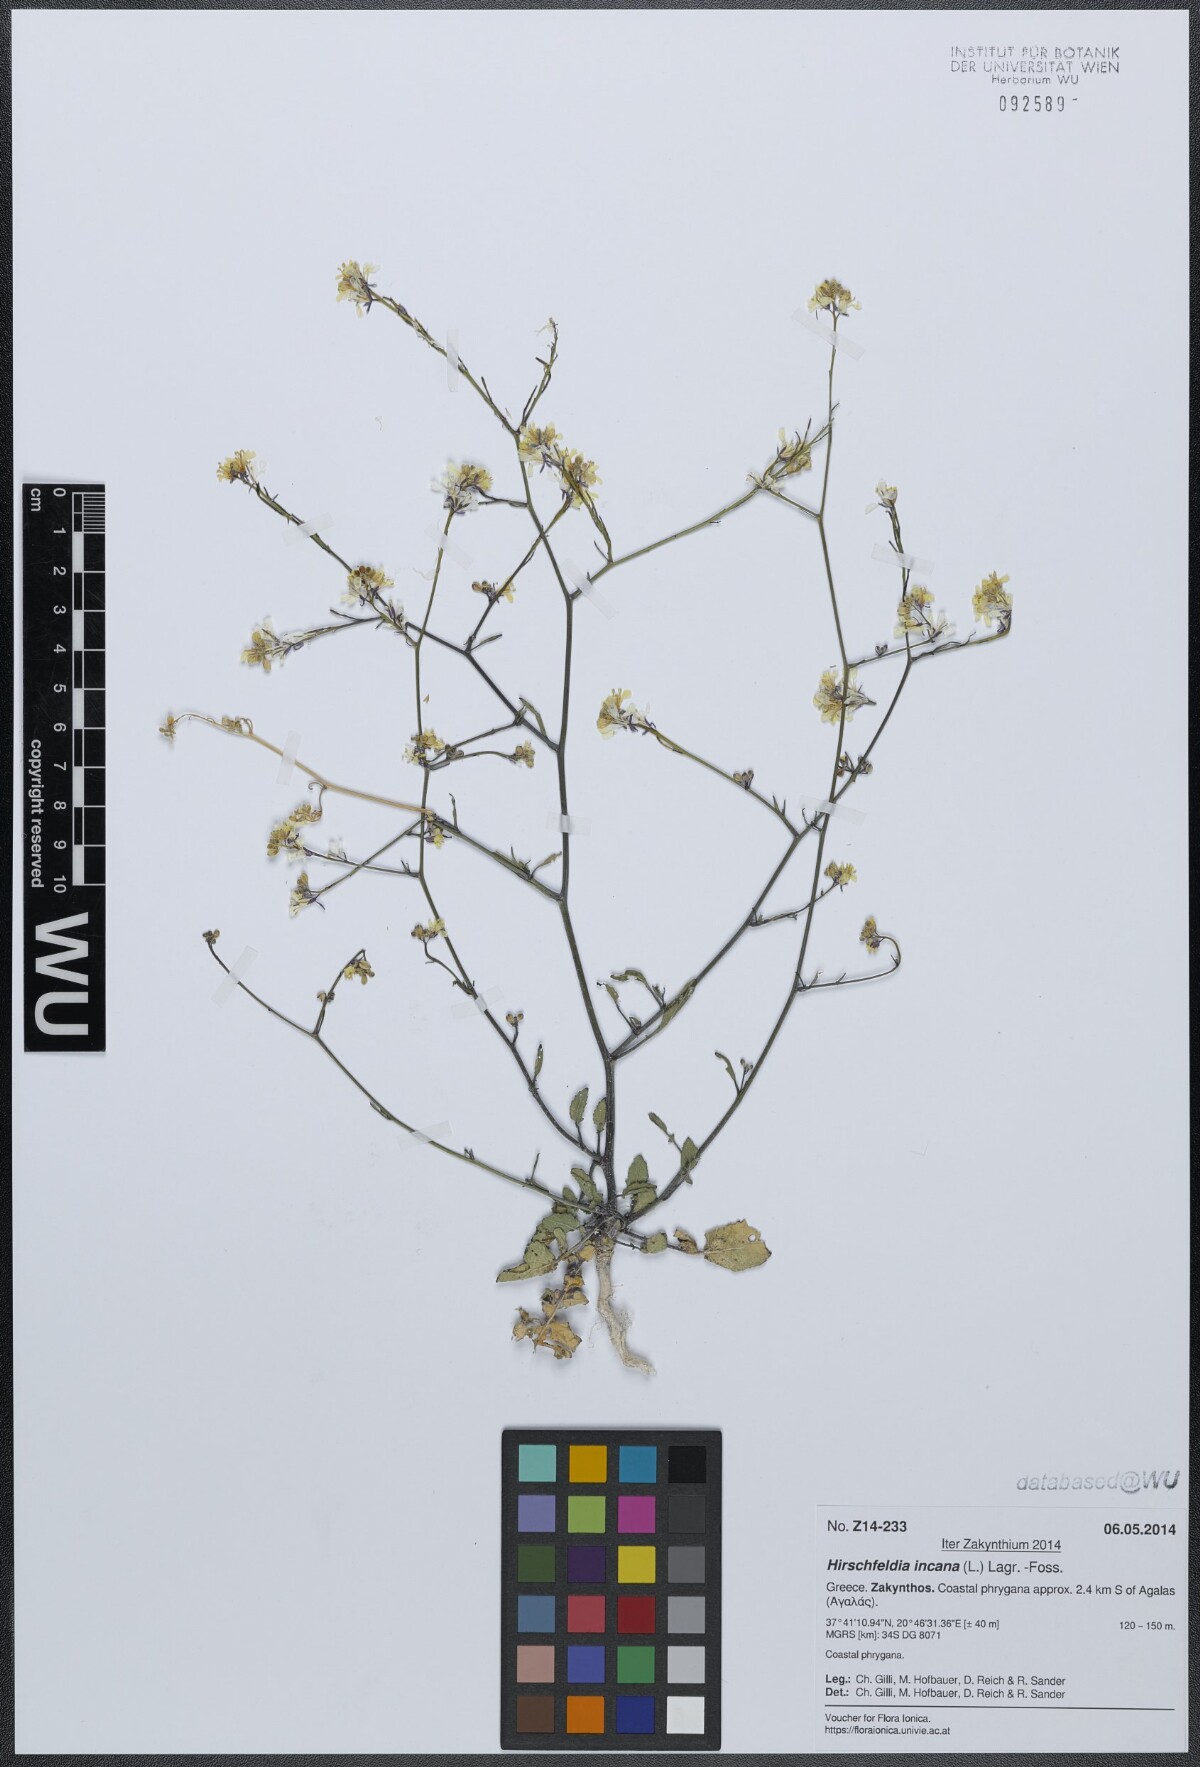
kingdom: Plantae
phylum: Tracheophyta
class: Magnoliopsida
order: Brassicales
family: Brassicaceae
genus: Hirschfeldia
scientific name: Hirschfeldia incana
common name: Hoary mustard
